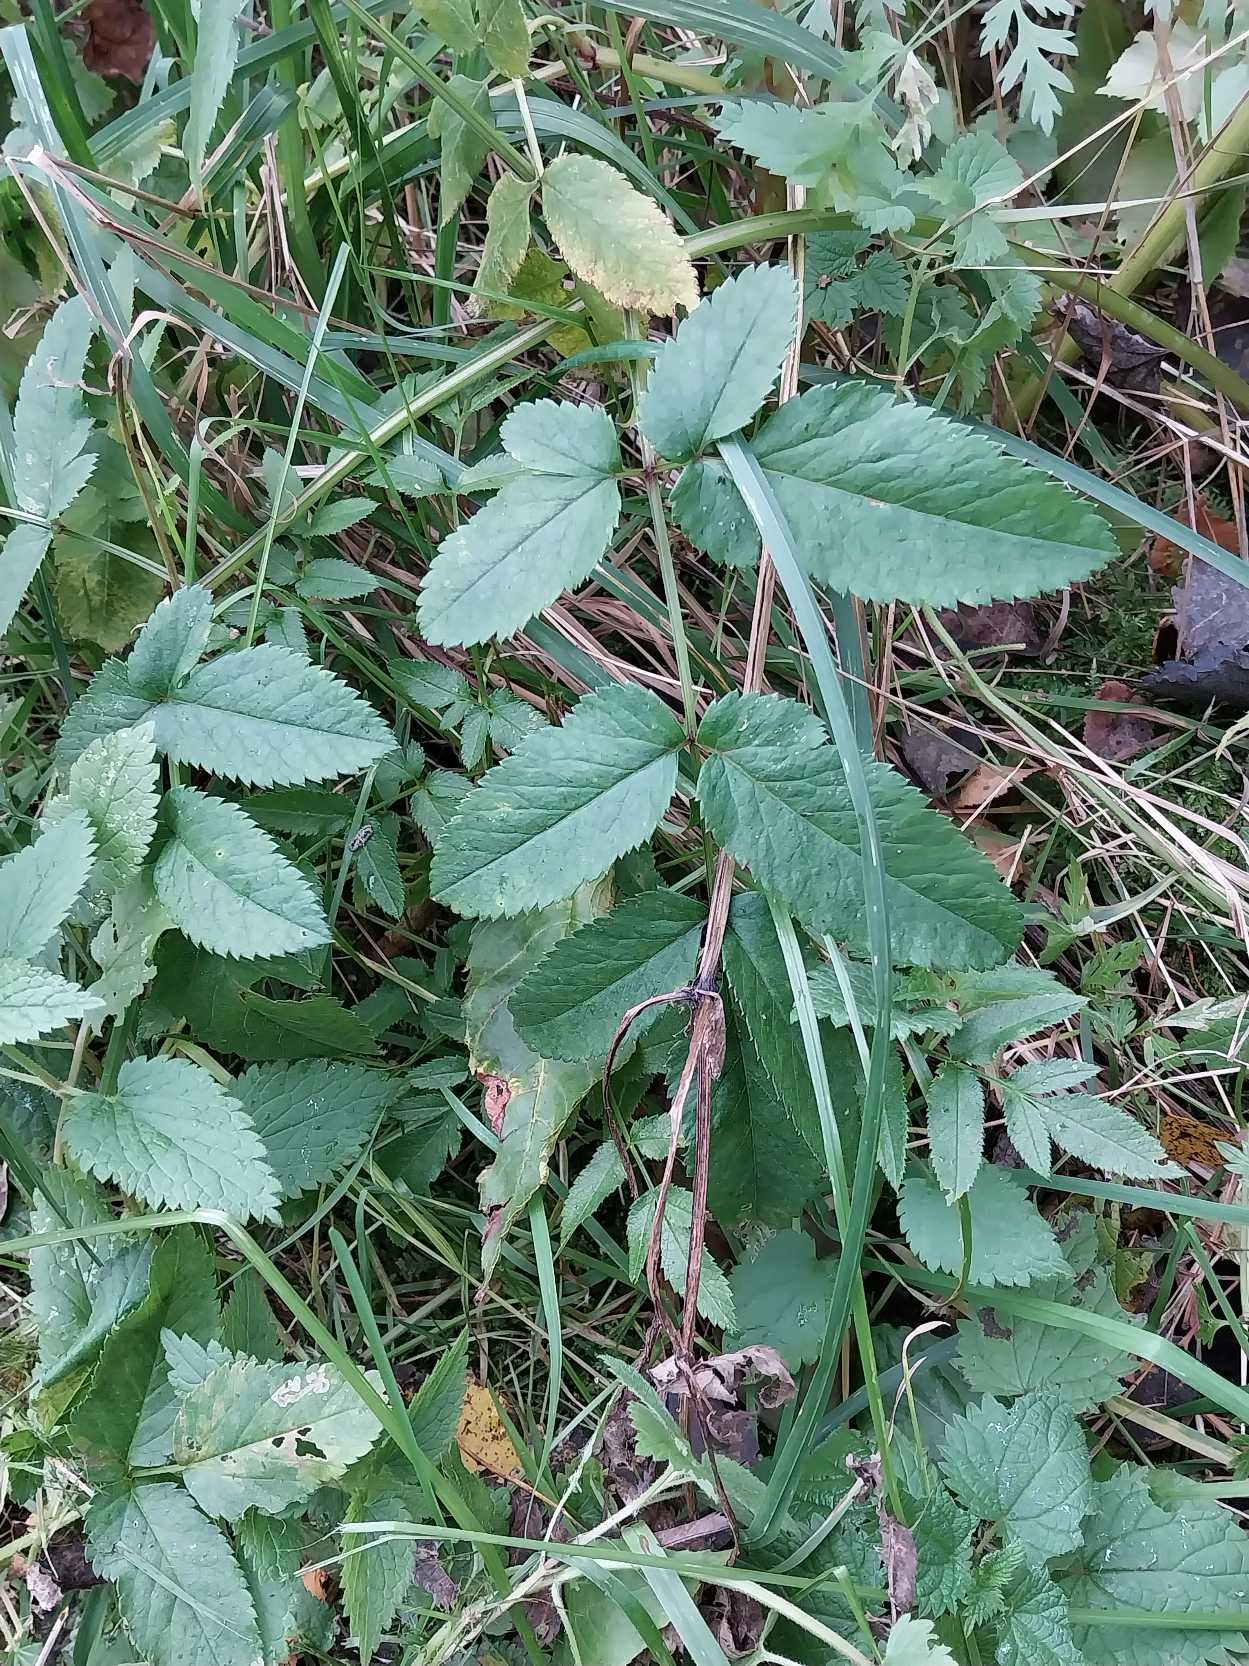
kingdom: Plantae
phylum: Tracheophyta
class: Magnoliopsida
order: Apiales
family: Apiaceae
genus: Angelica
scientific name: Angelica sylvestris
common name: Angelik
